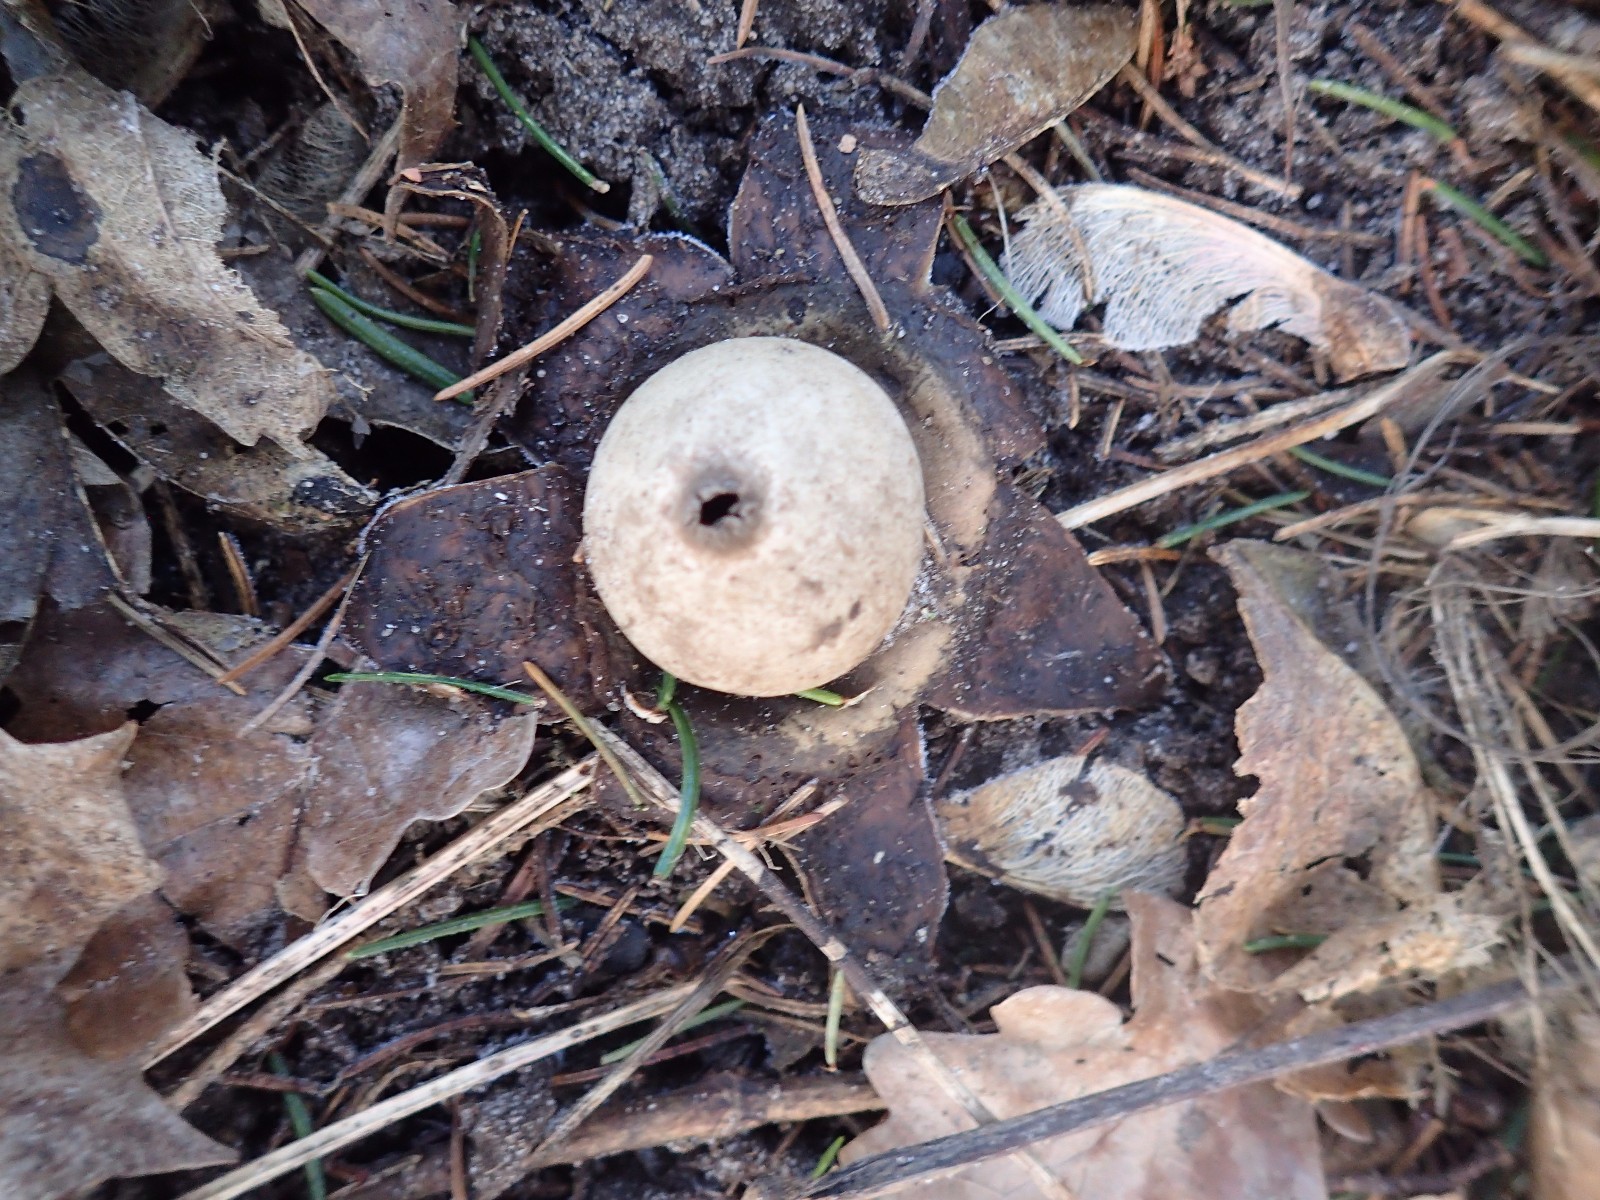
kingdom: Fungi
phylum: Basidiomycota
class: Agaricomycetes
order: Geastrales
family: Geastraceae
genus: Geastrum
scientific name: Geastrum michelianum
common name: kødet stjernebold
